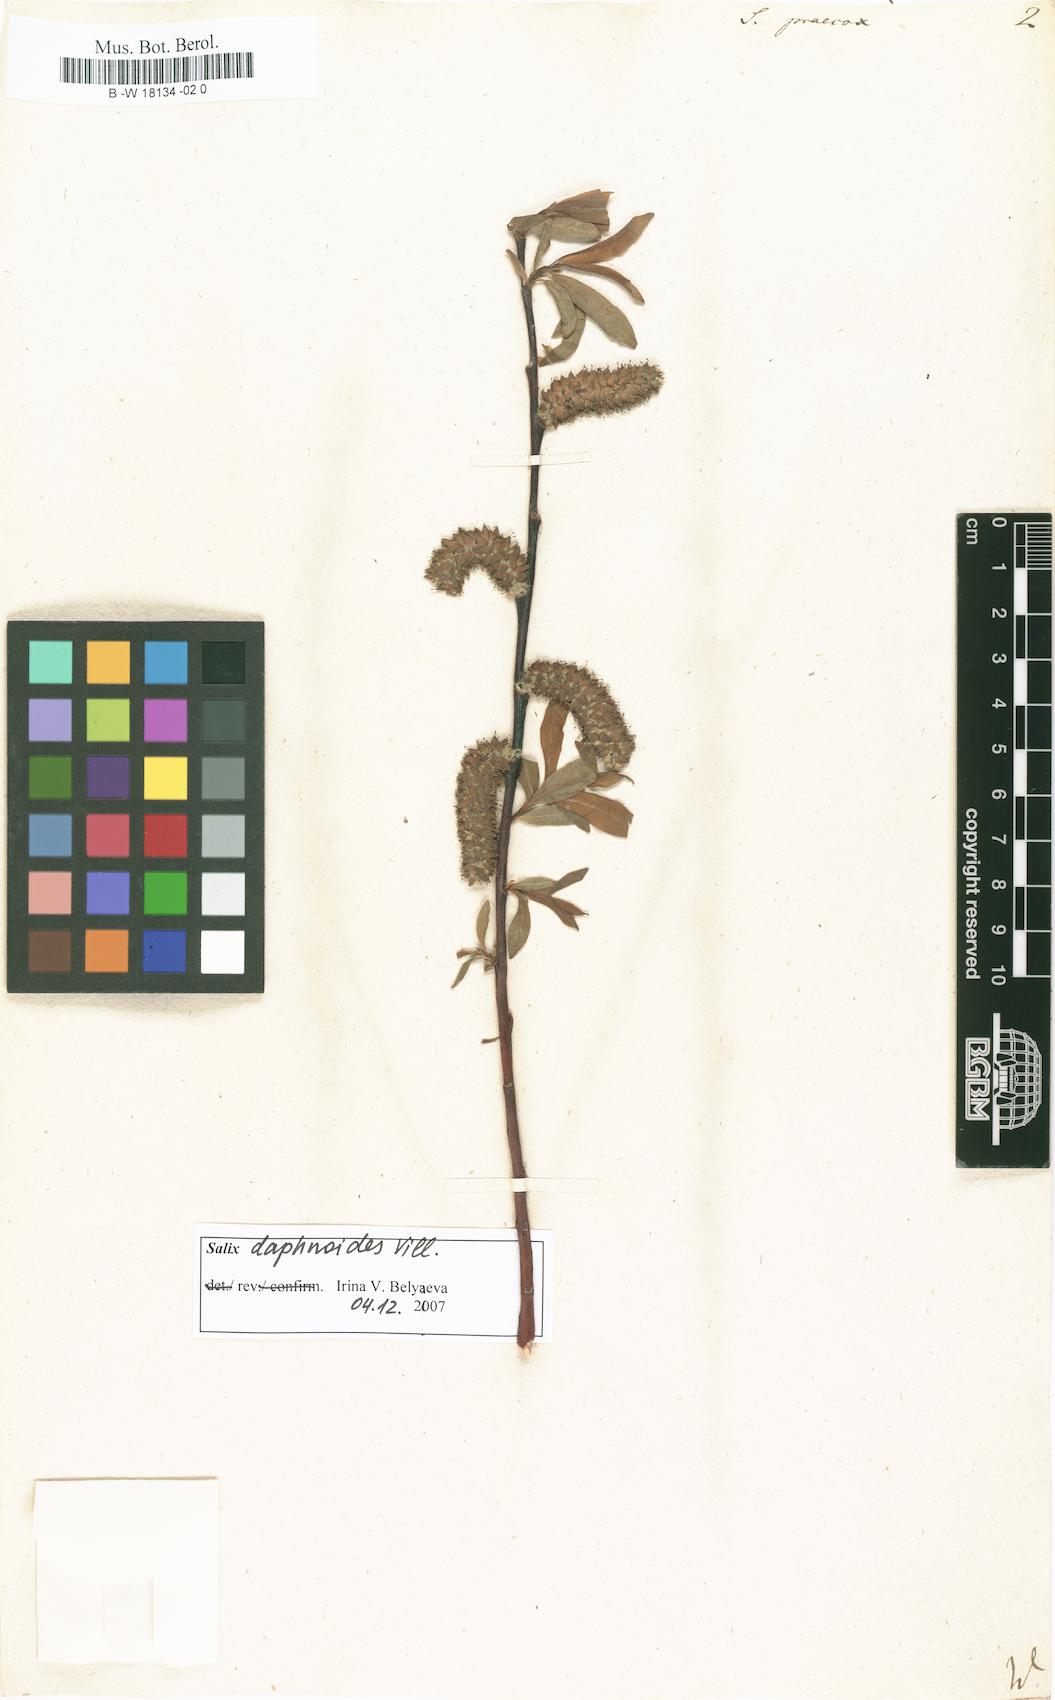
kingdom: Plantae
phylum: Tracheophyta
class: Magnoliopsida
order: Malpighiales
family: Salicaceae
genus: Salix
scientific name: Salix caprea
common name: Goat willow
